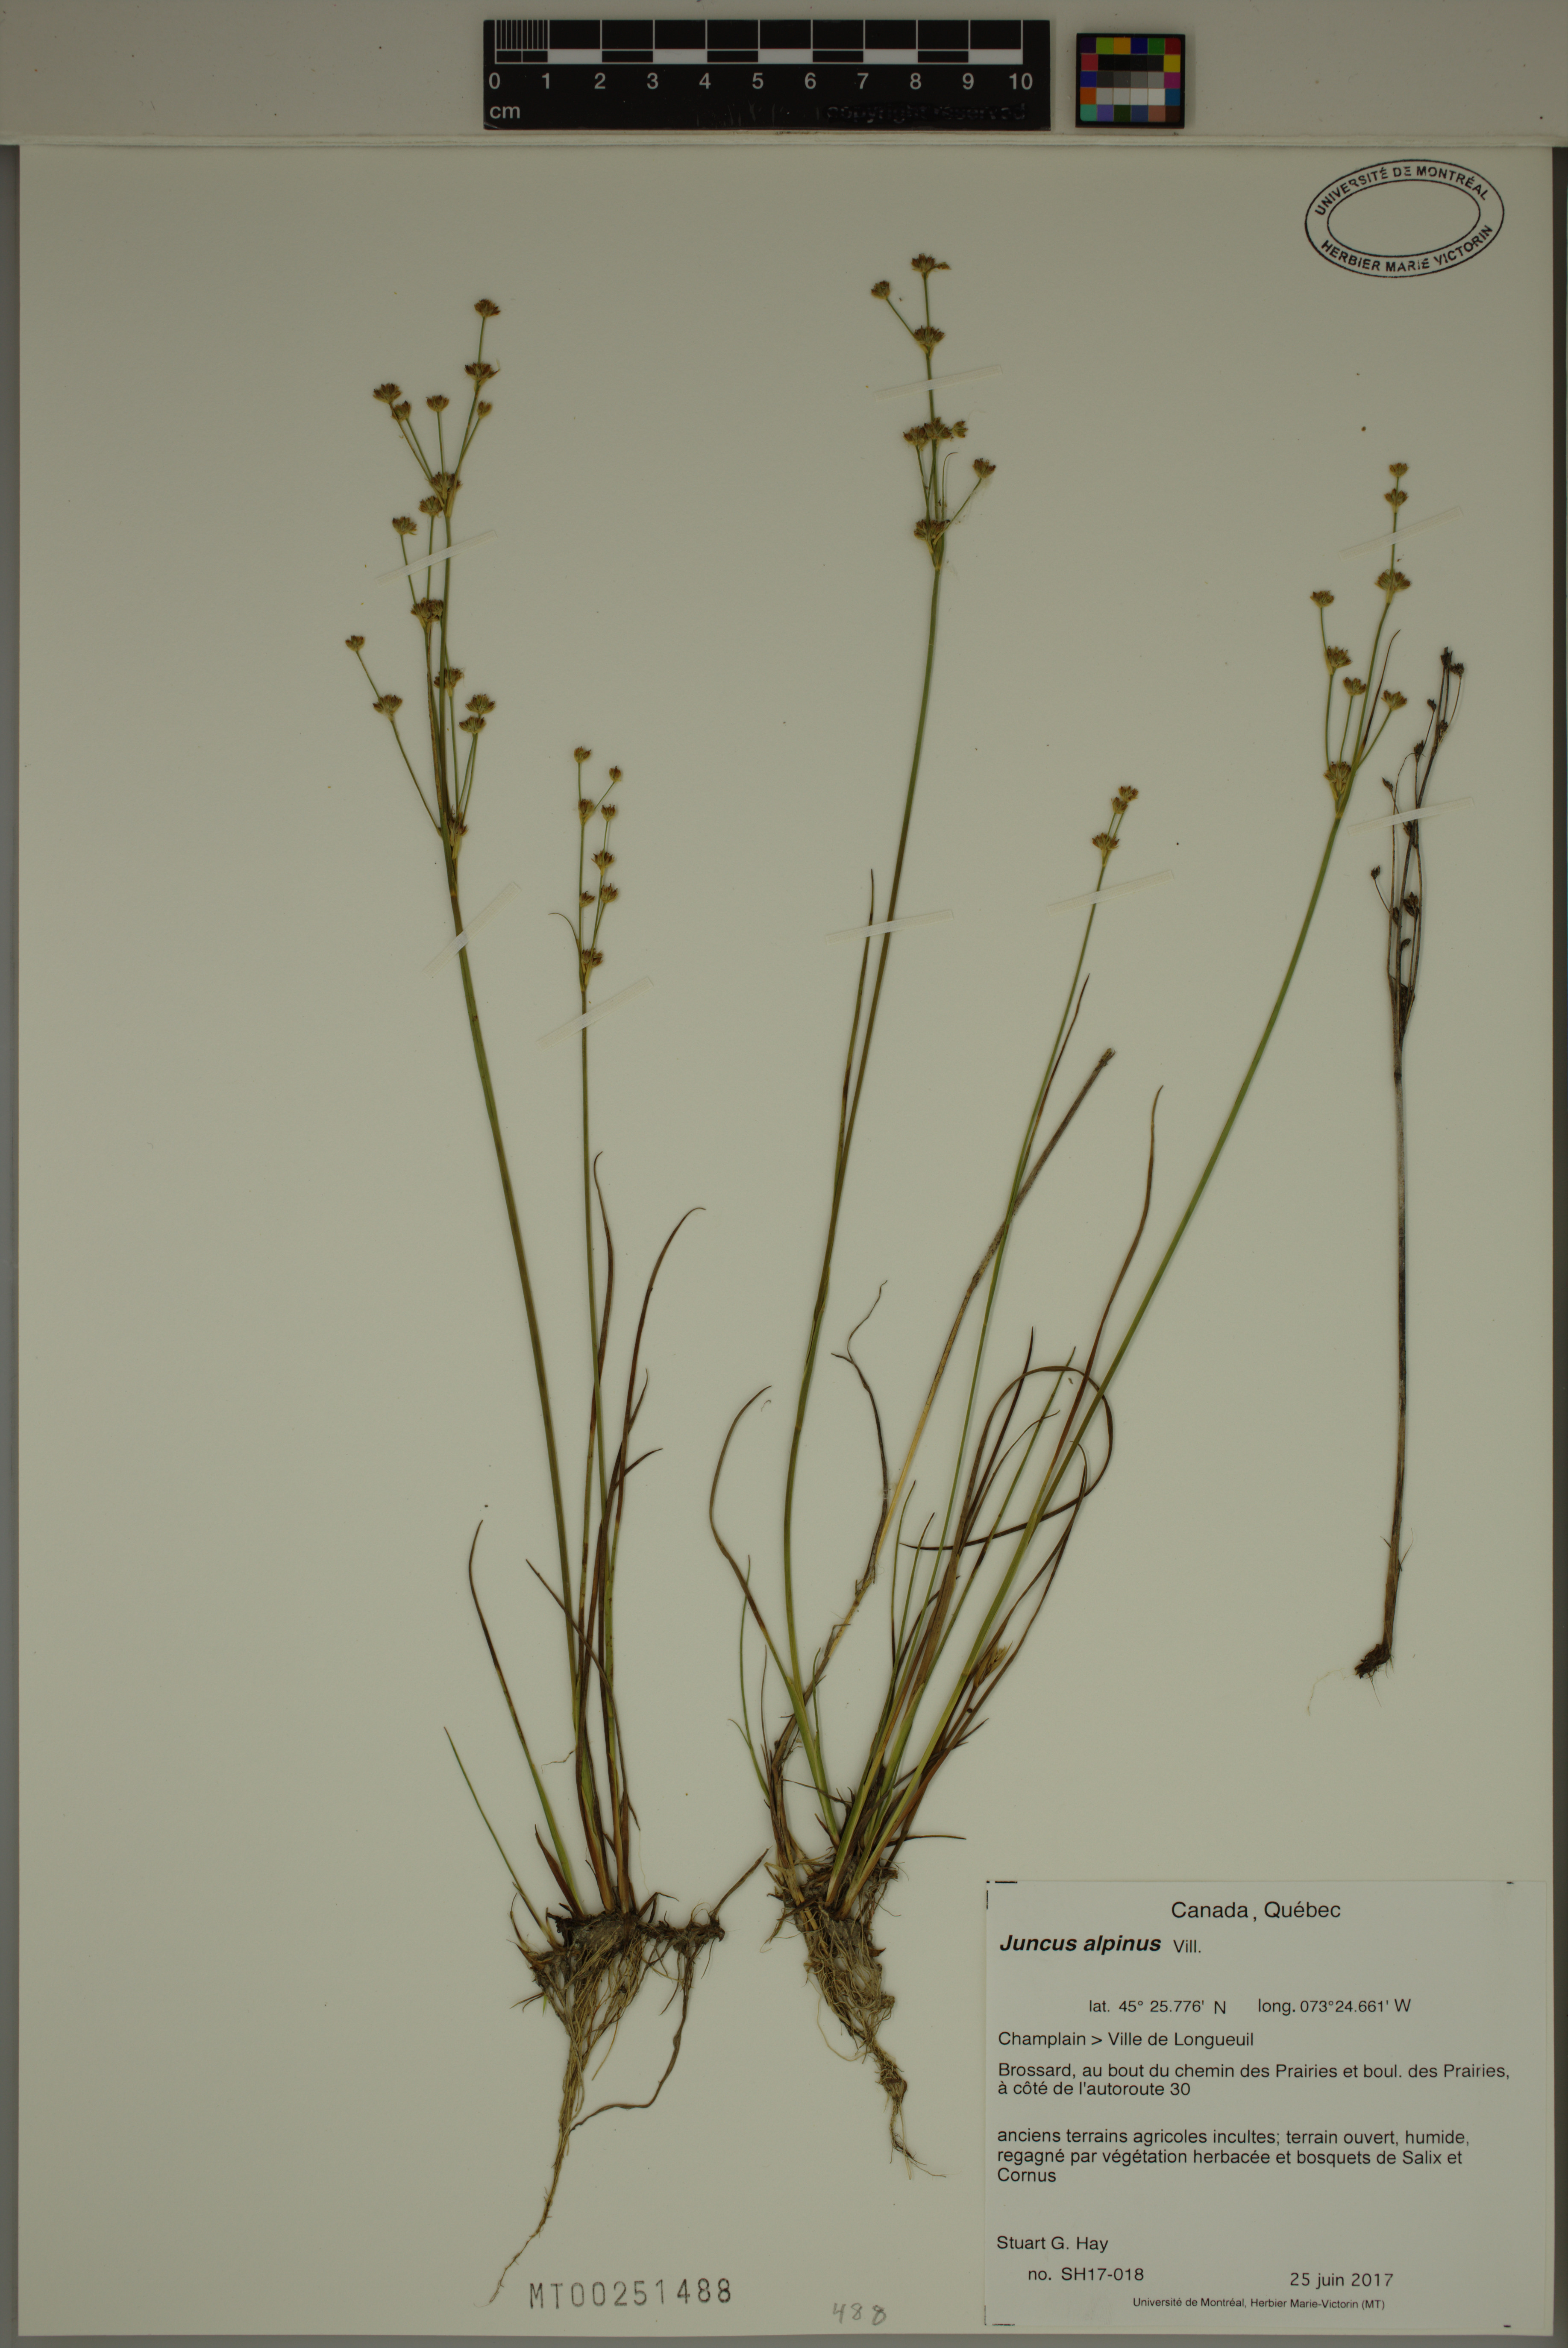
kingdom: Plantae
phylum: Tracheophyta
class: Liliopsida
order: Poales
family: Juncaceae
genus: Juncus
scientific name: Juncus alpinoarticulatus
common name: Alpine rush
